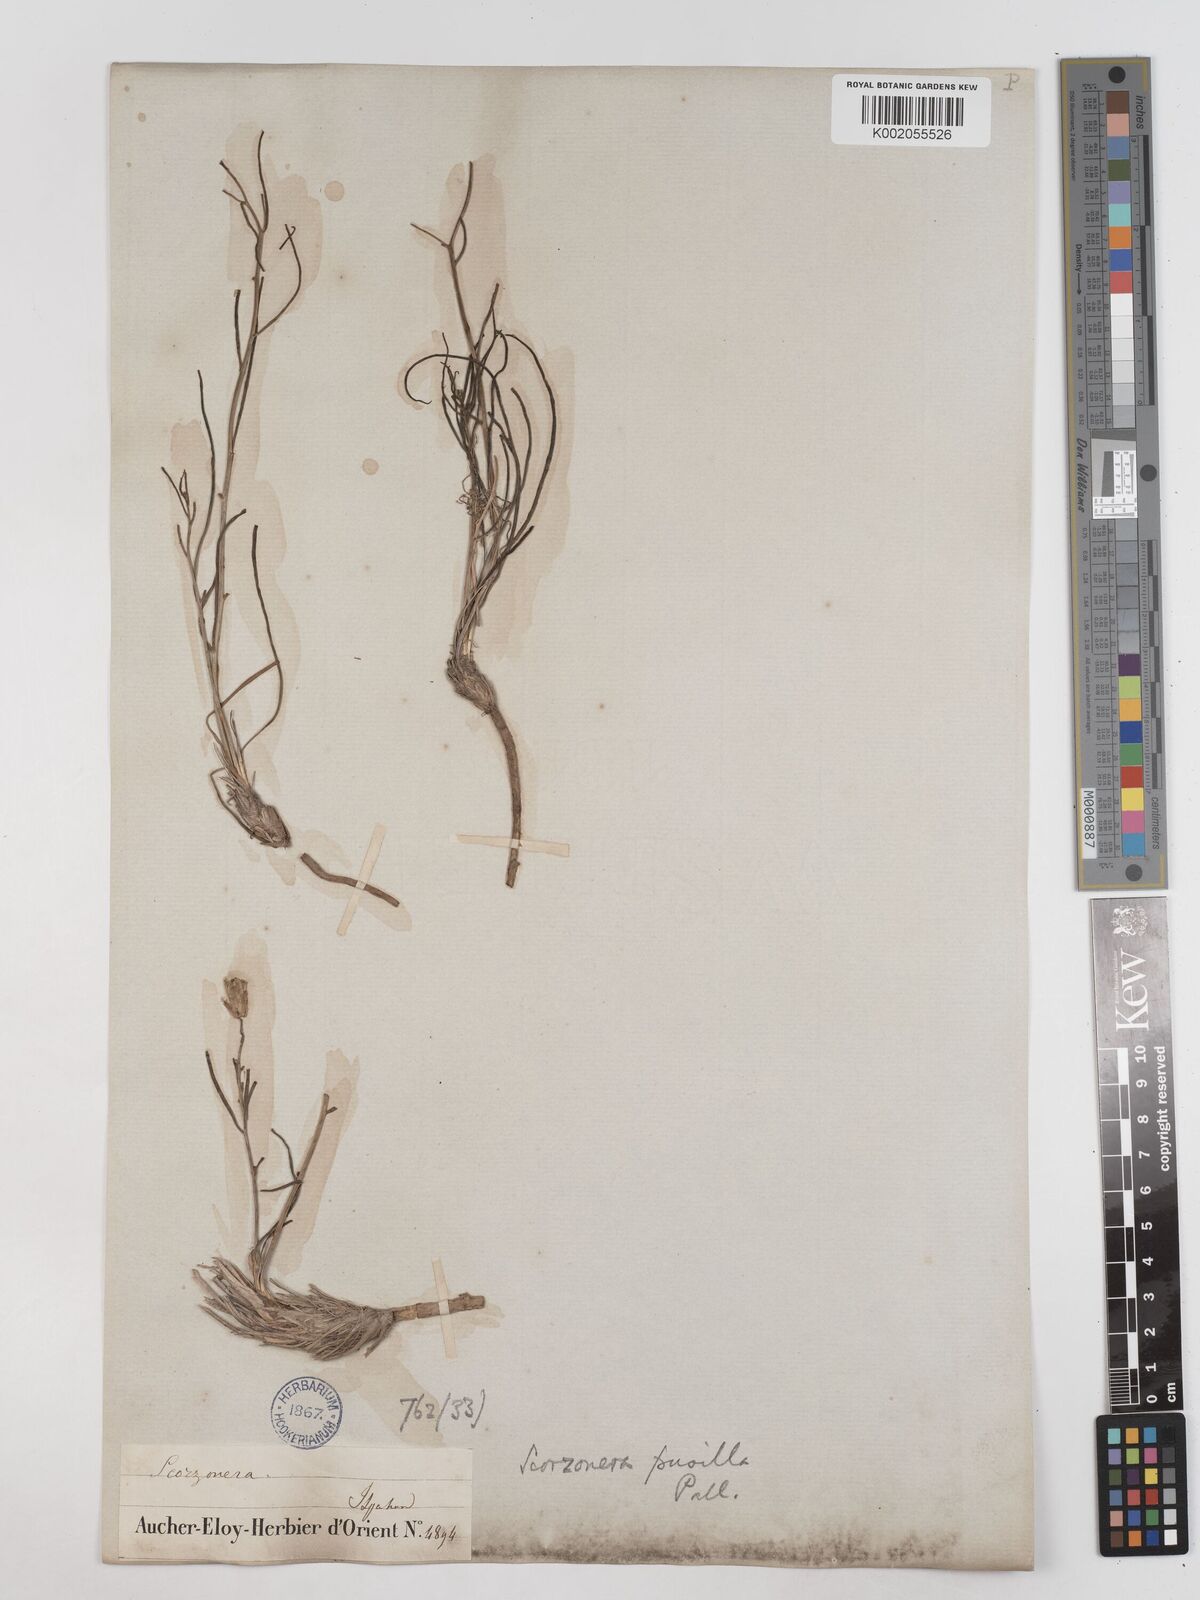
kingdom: Plantae
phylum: Tracheophyta
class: Magnoliopsida
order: Asterales
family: Asteraceae
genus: Takhtajaniantha
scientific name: Takhtajaniantha pusilla
